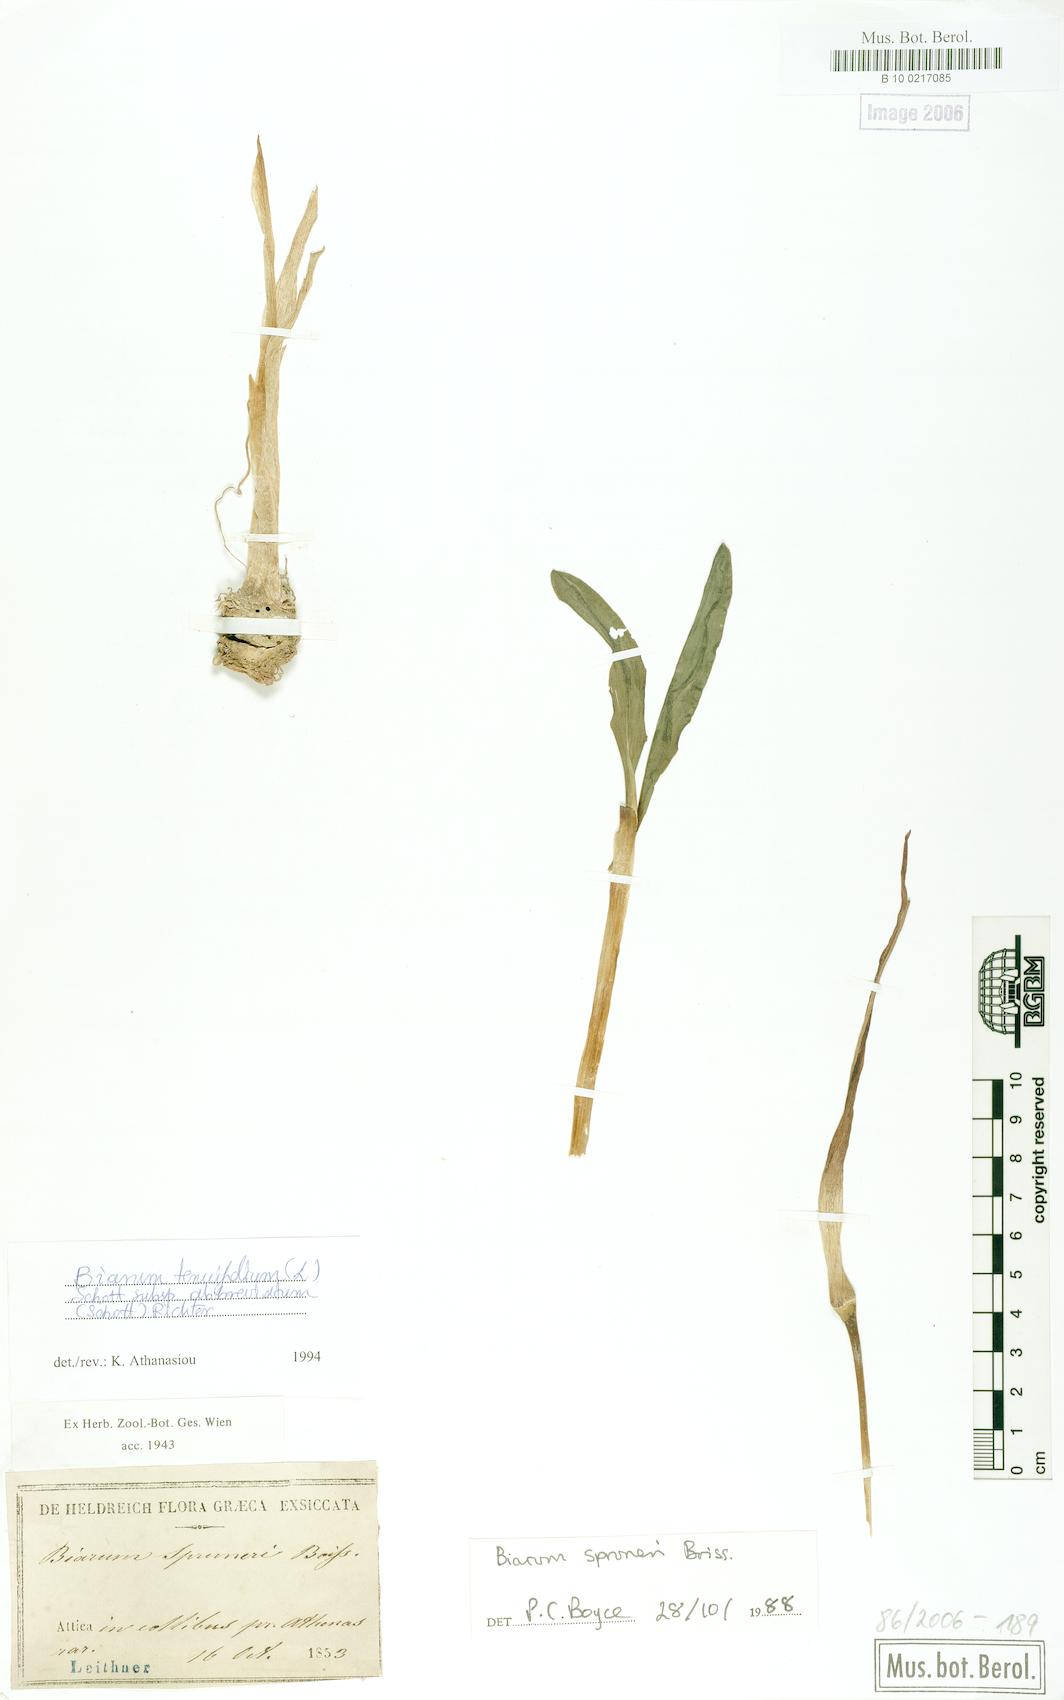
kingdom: Plantae
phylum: Tracheophyta
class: Liliopsida
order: Alismatales
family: Araceae
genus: Biarum
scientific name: Biarum tenuifolium
